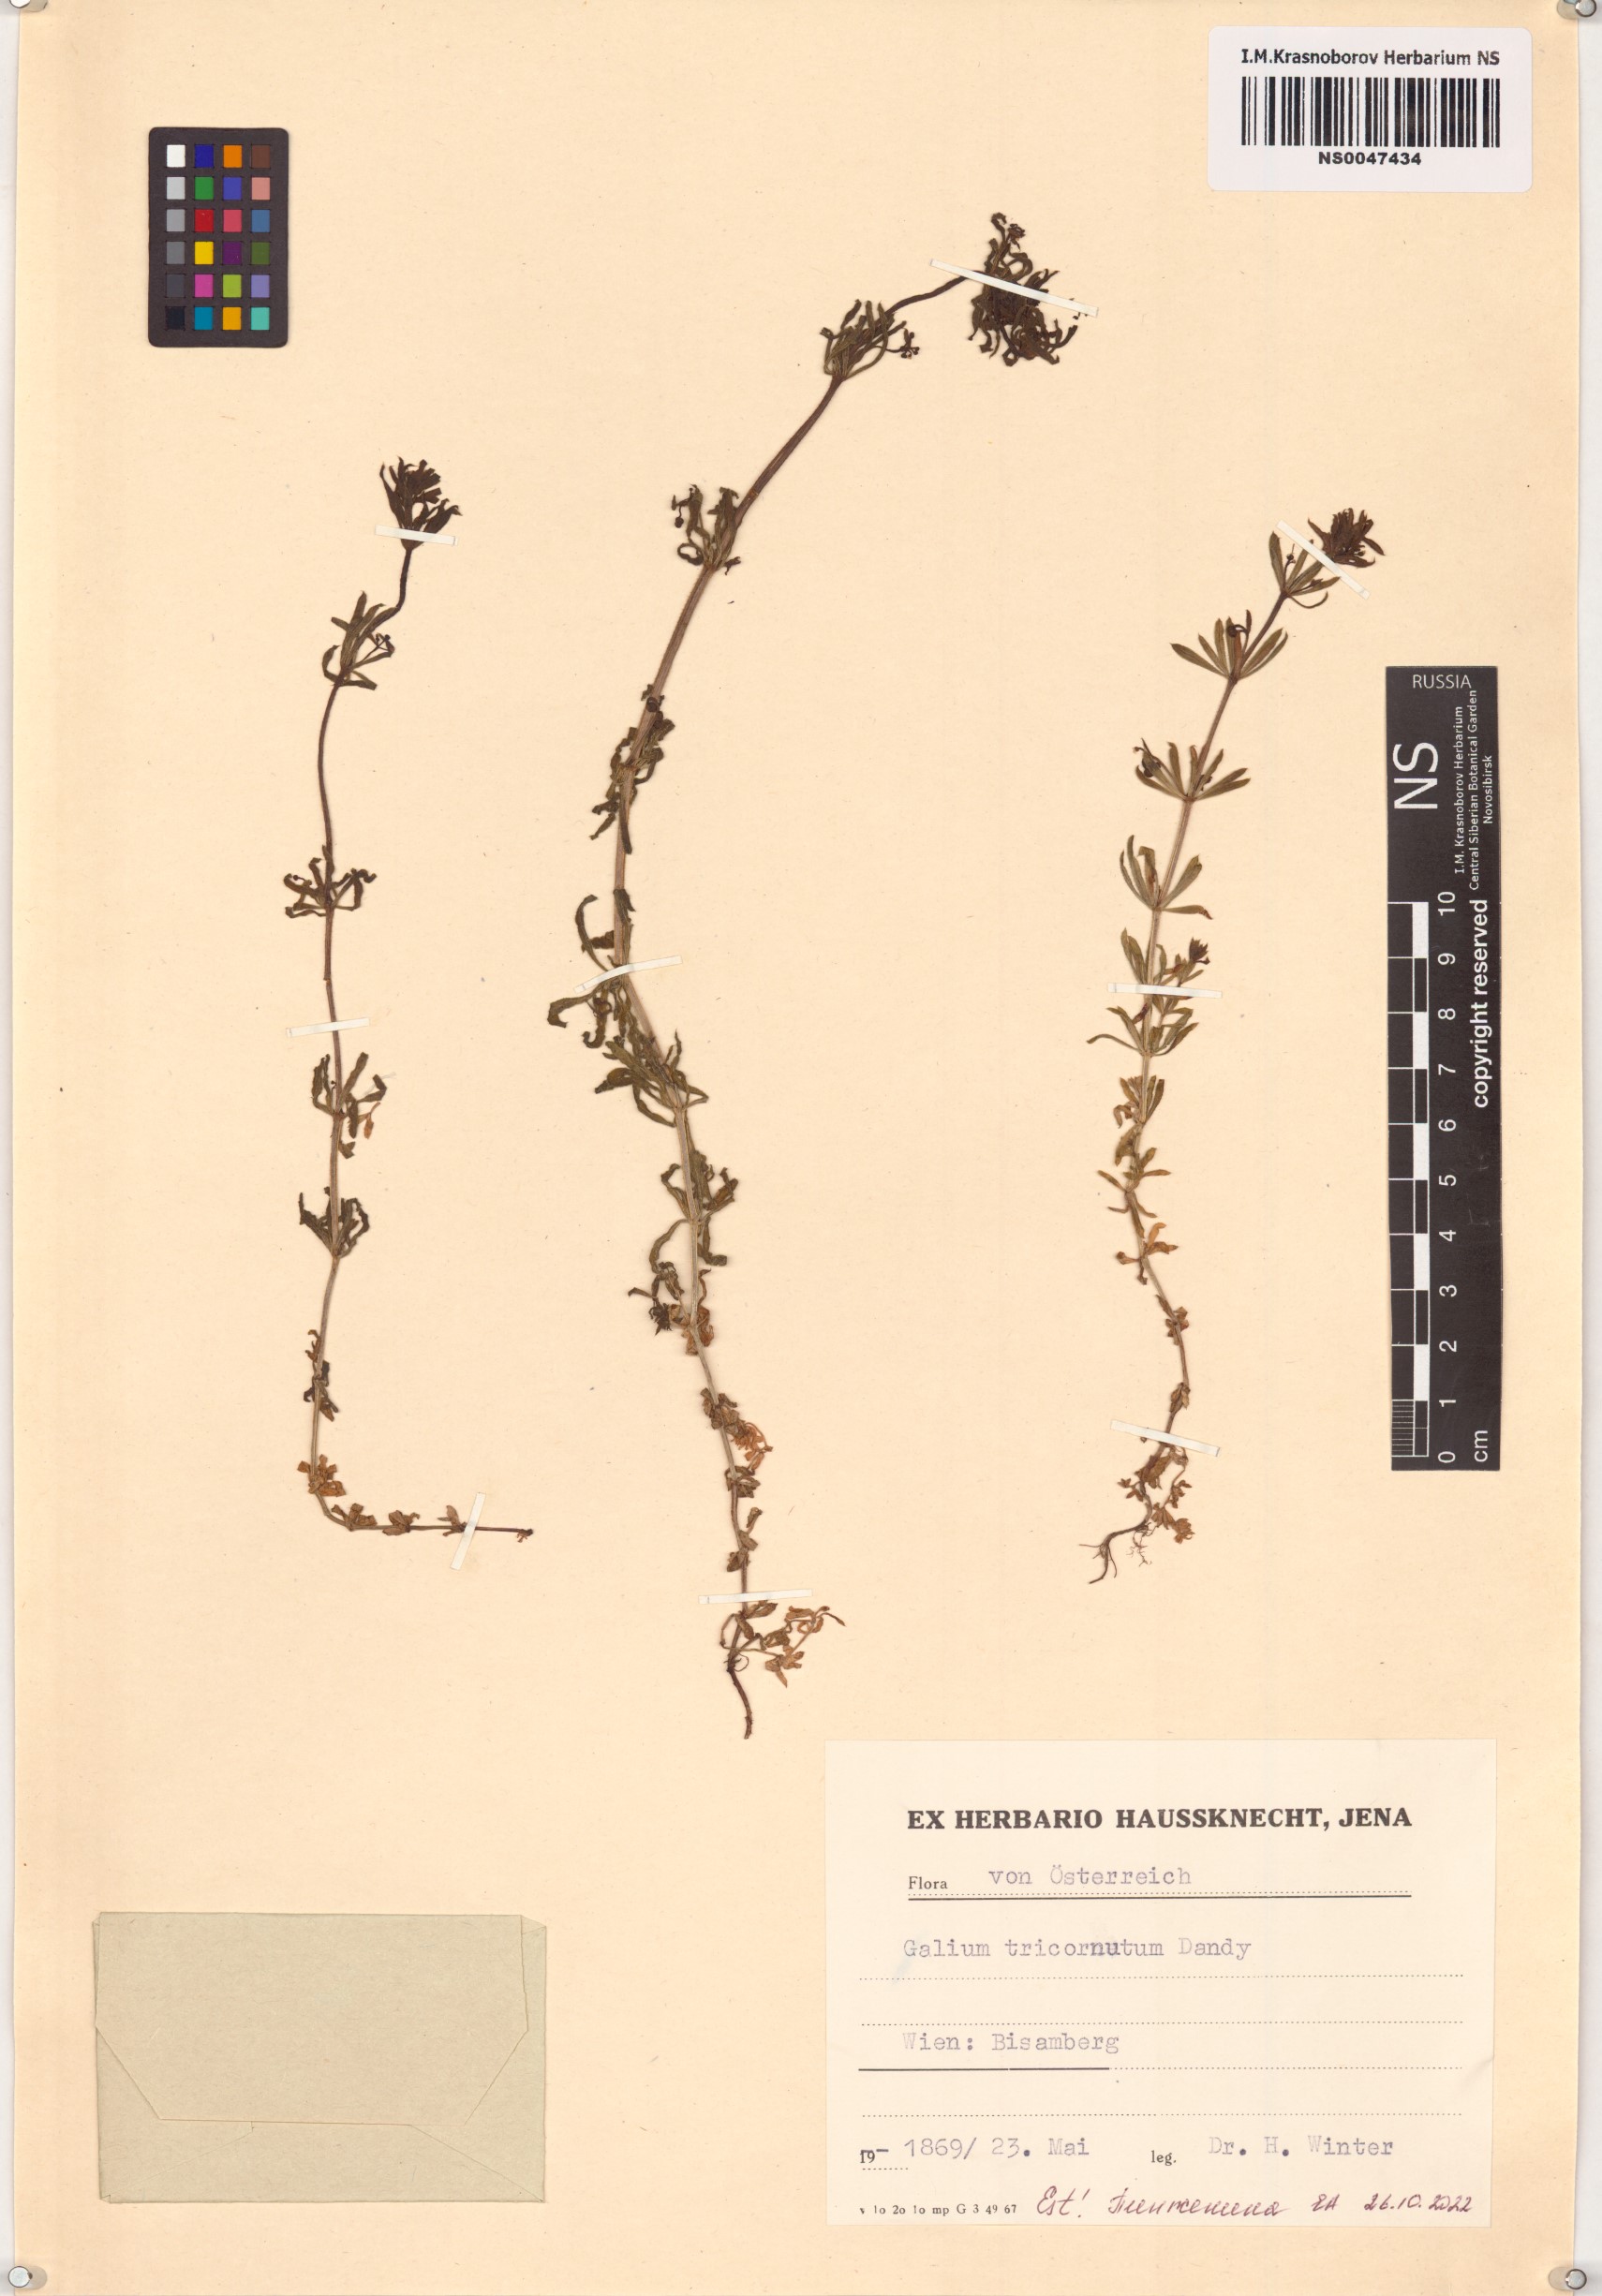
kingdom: Plantae
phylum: Tracheophyta
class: Magnoliopsida
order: Gentianales
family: Rubiaceae
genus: Galium
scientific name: Galium tricornutum
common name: Corn cleavers
